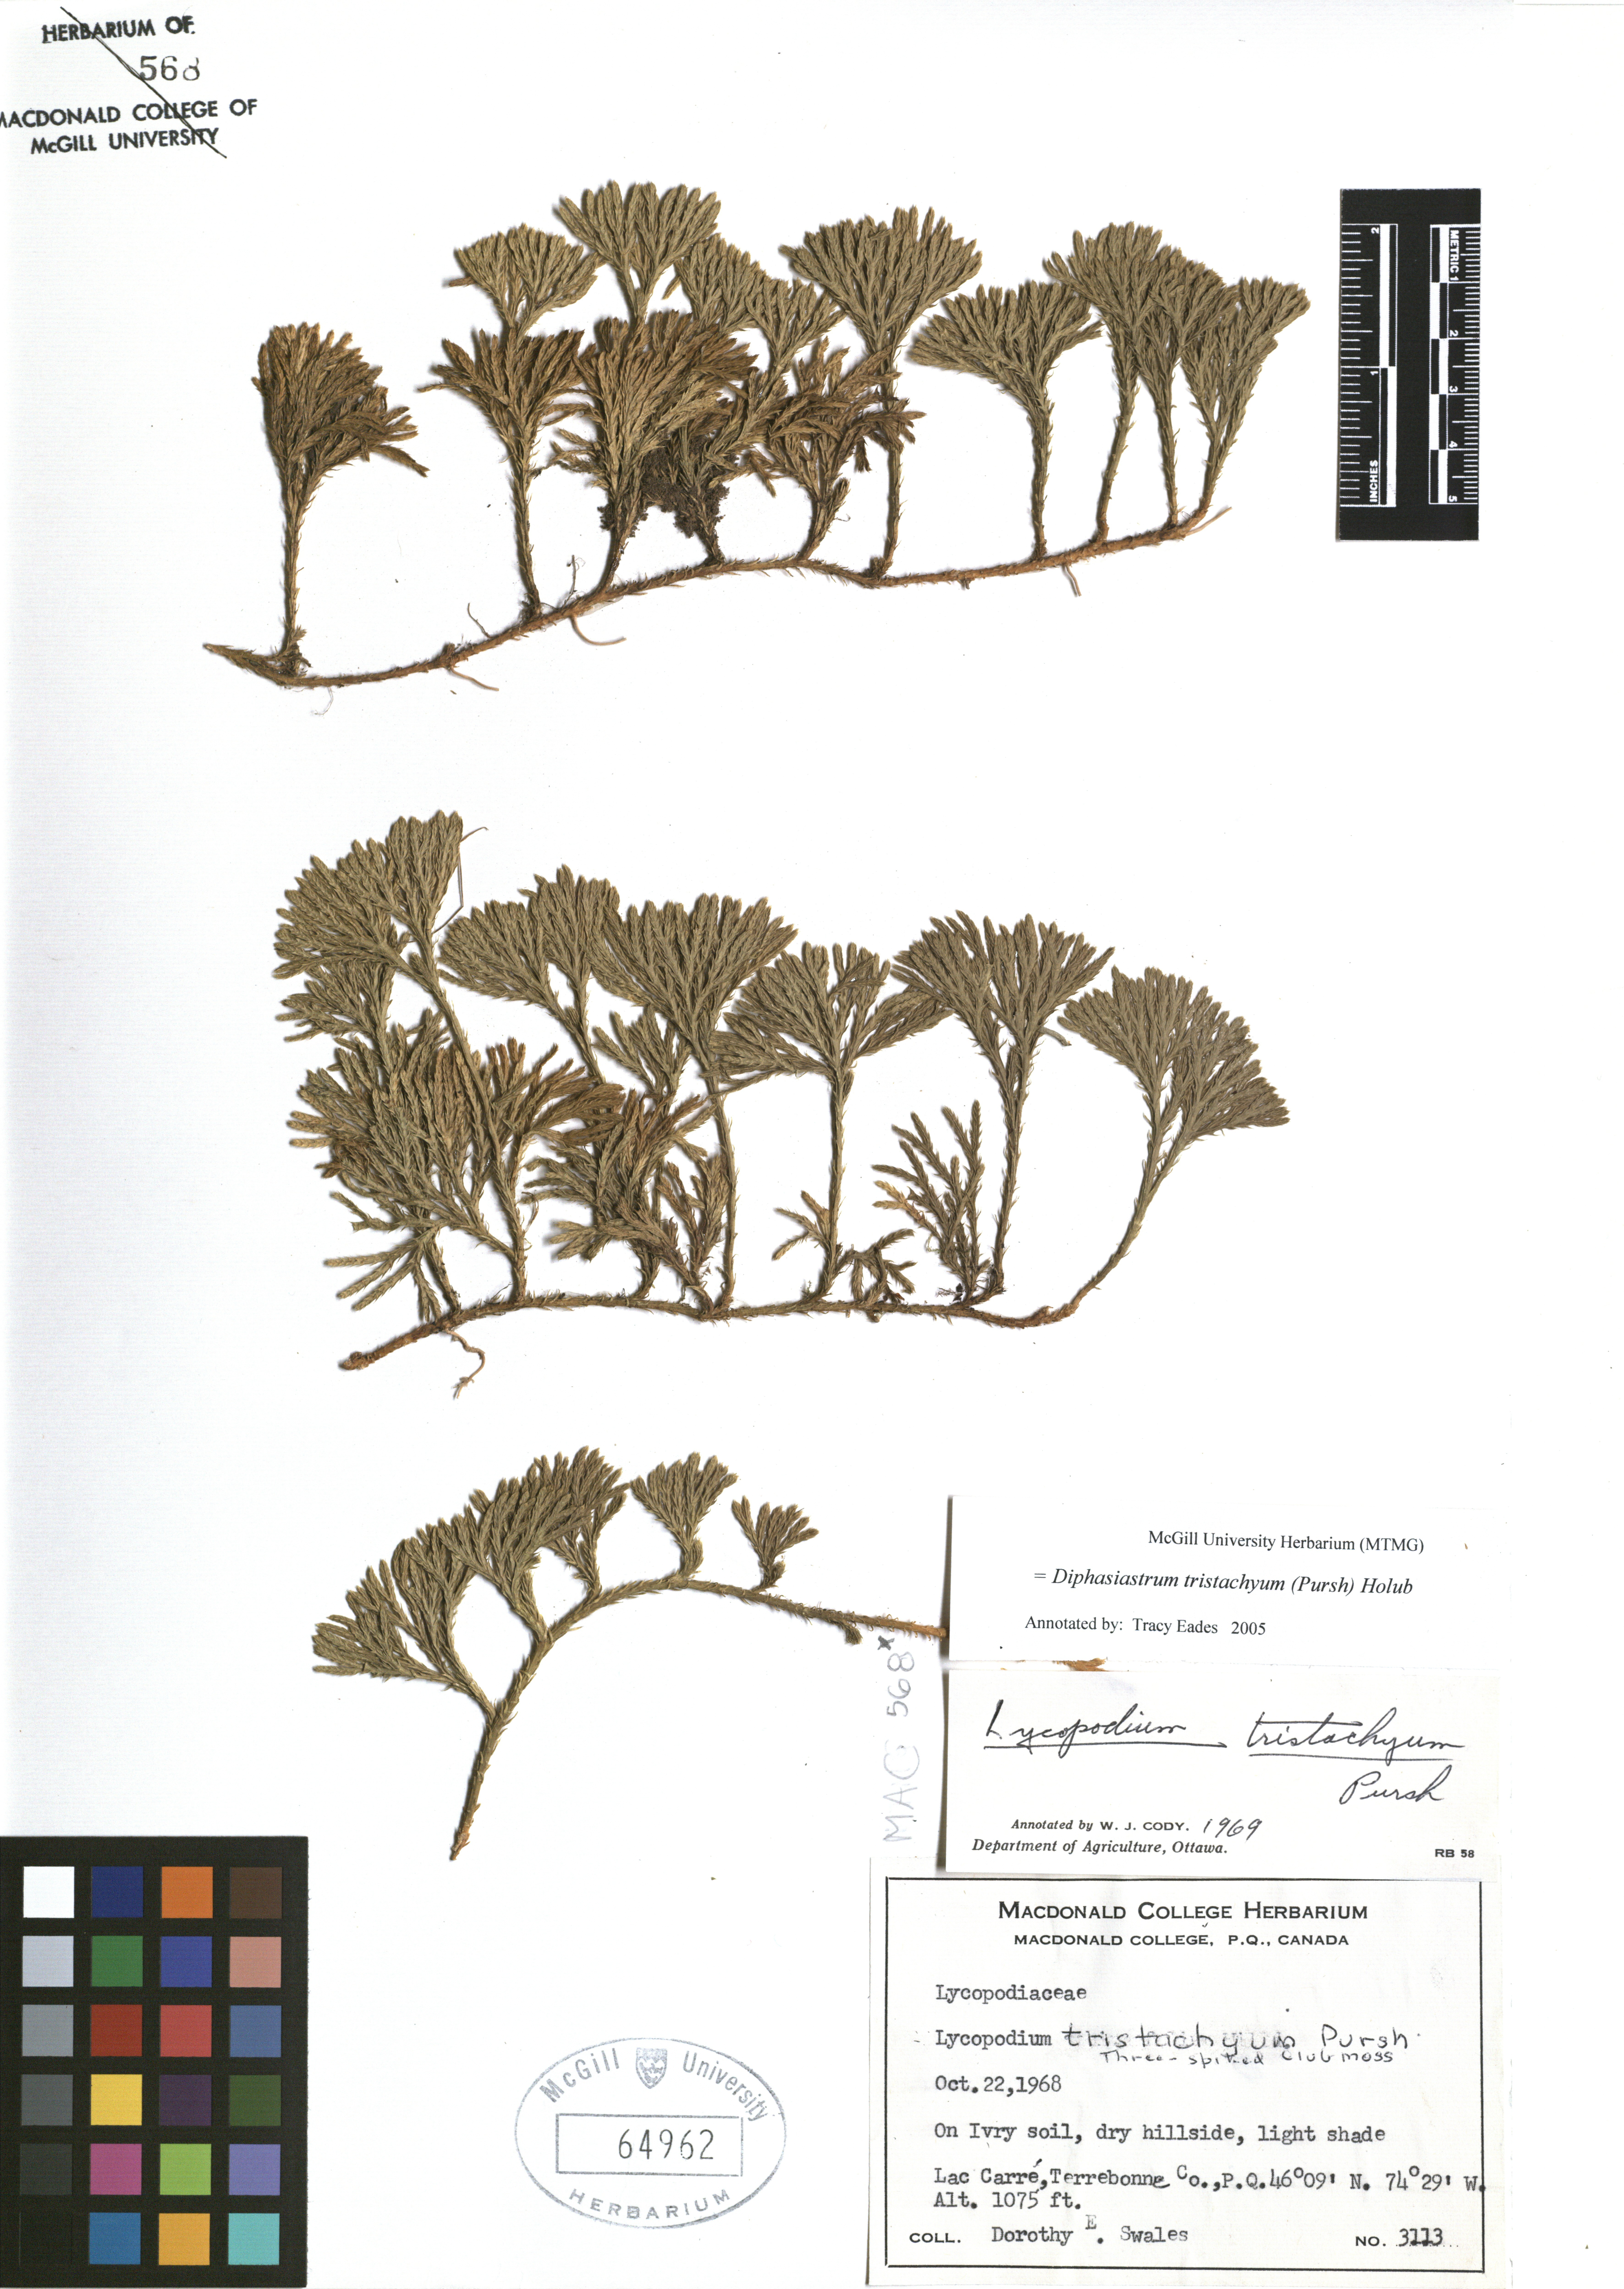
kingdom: Plantae
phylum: Tracheophyta
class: Lycopodiopsida
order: Lycopodiales
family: Lycopodiaceae
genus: Diphasiastrum
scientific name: Diphasiastrum tristachyum
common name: Blue ground-cedar
